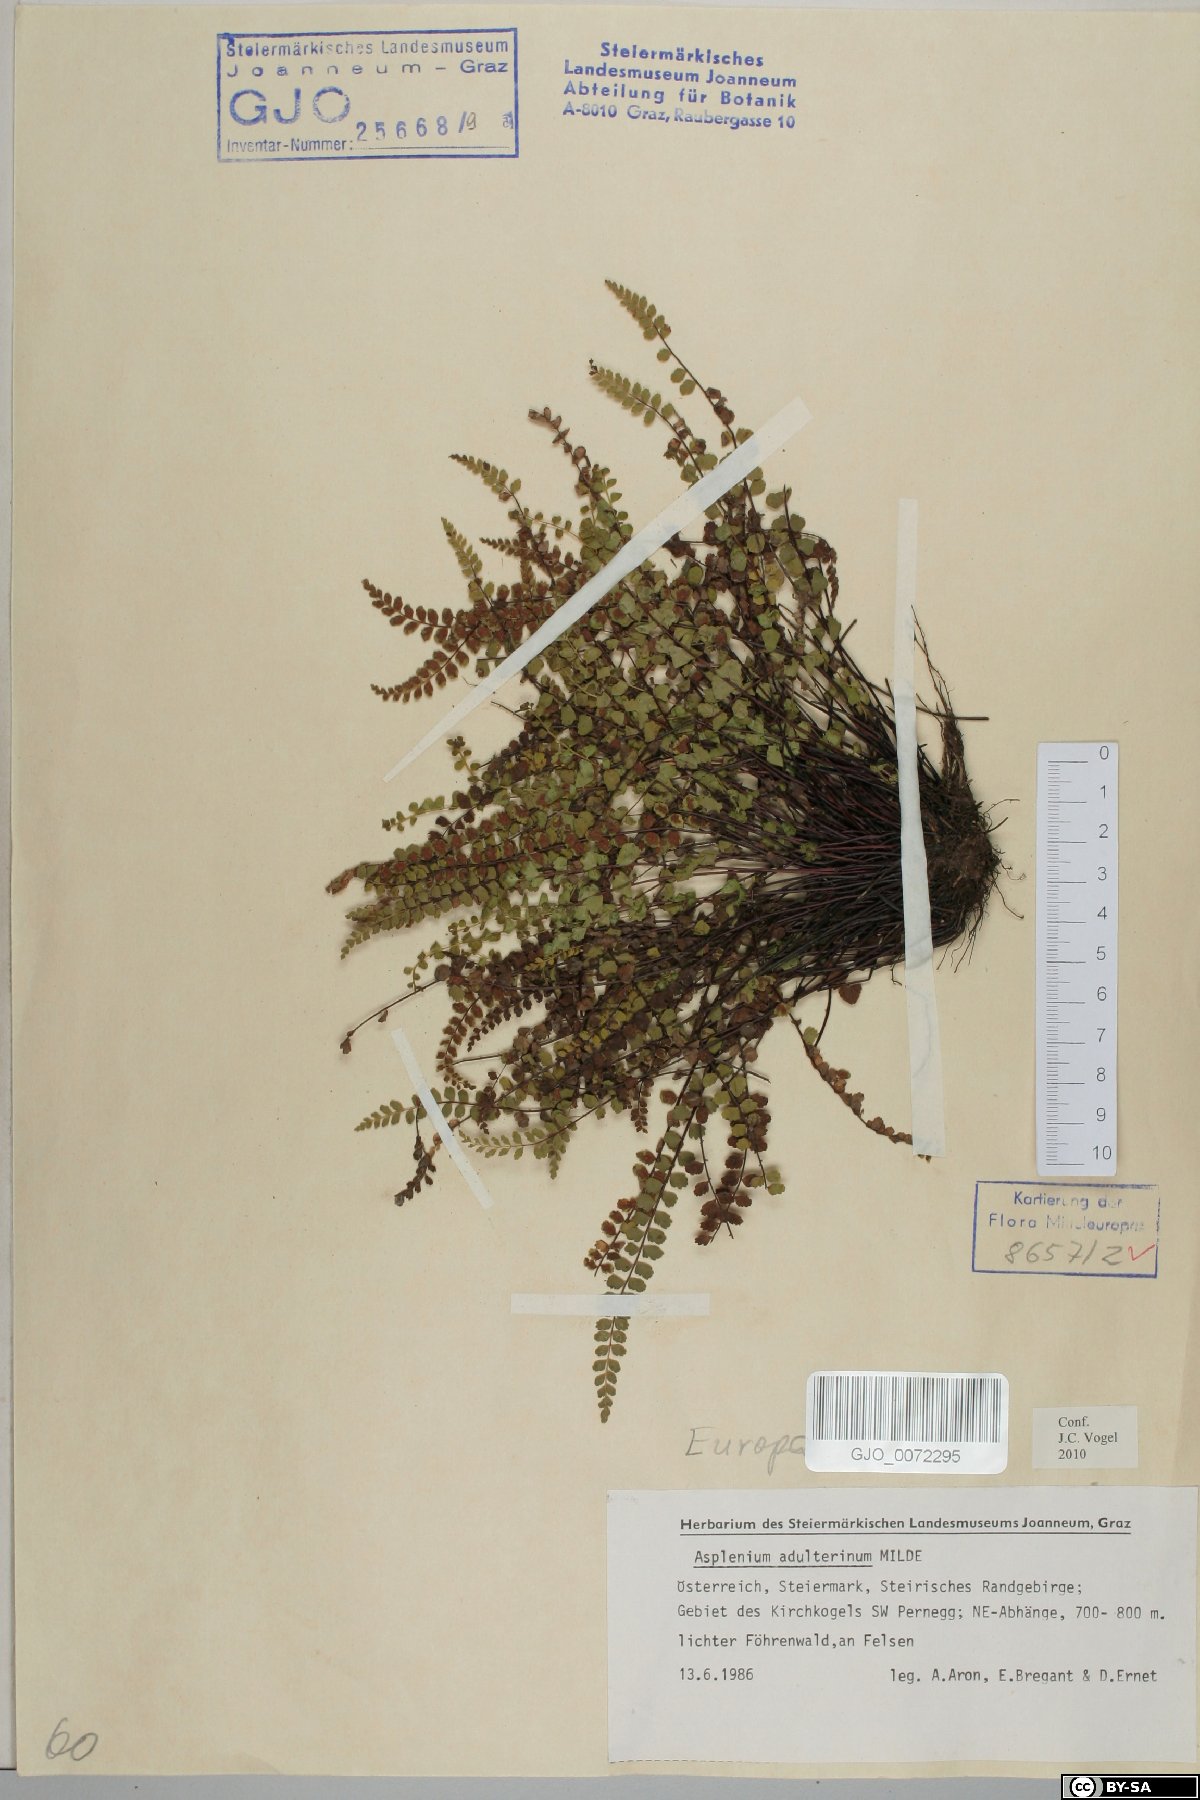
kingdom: Plantae
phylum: Tracheophyta
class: Polypodiopsida
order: Polypodiales
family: Aspleniaceae
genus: Asplenium
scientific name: Asplenium adulterinum
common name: Adulterated spleenwort
